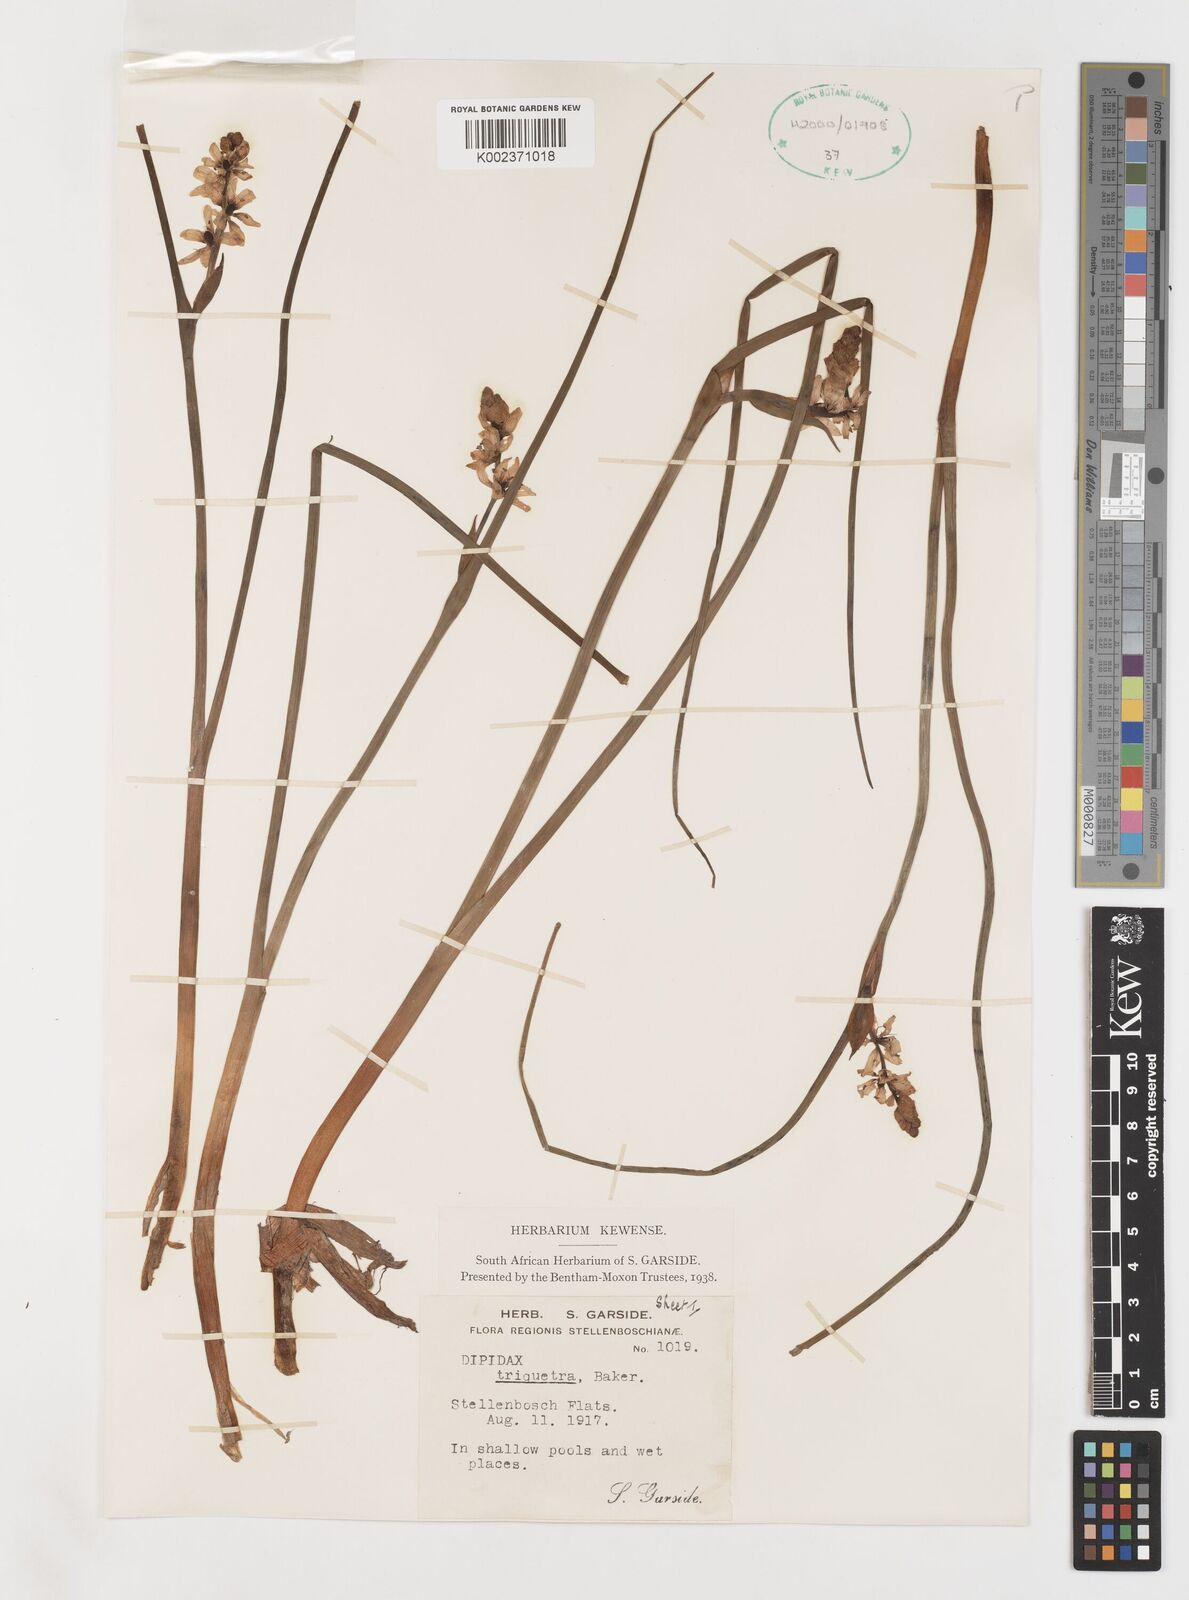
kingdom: Plantae
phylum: Tracheophyta
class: Liliopsida
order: Liliales
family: Colchicaceae
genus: Wurmbea
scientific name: Wurmbea stricta
